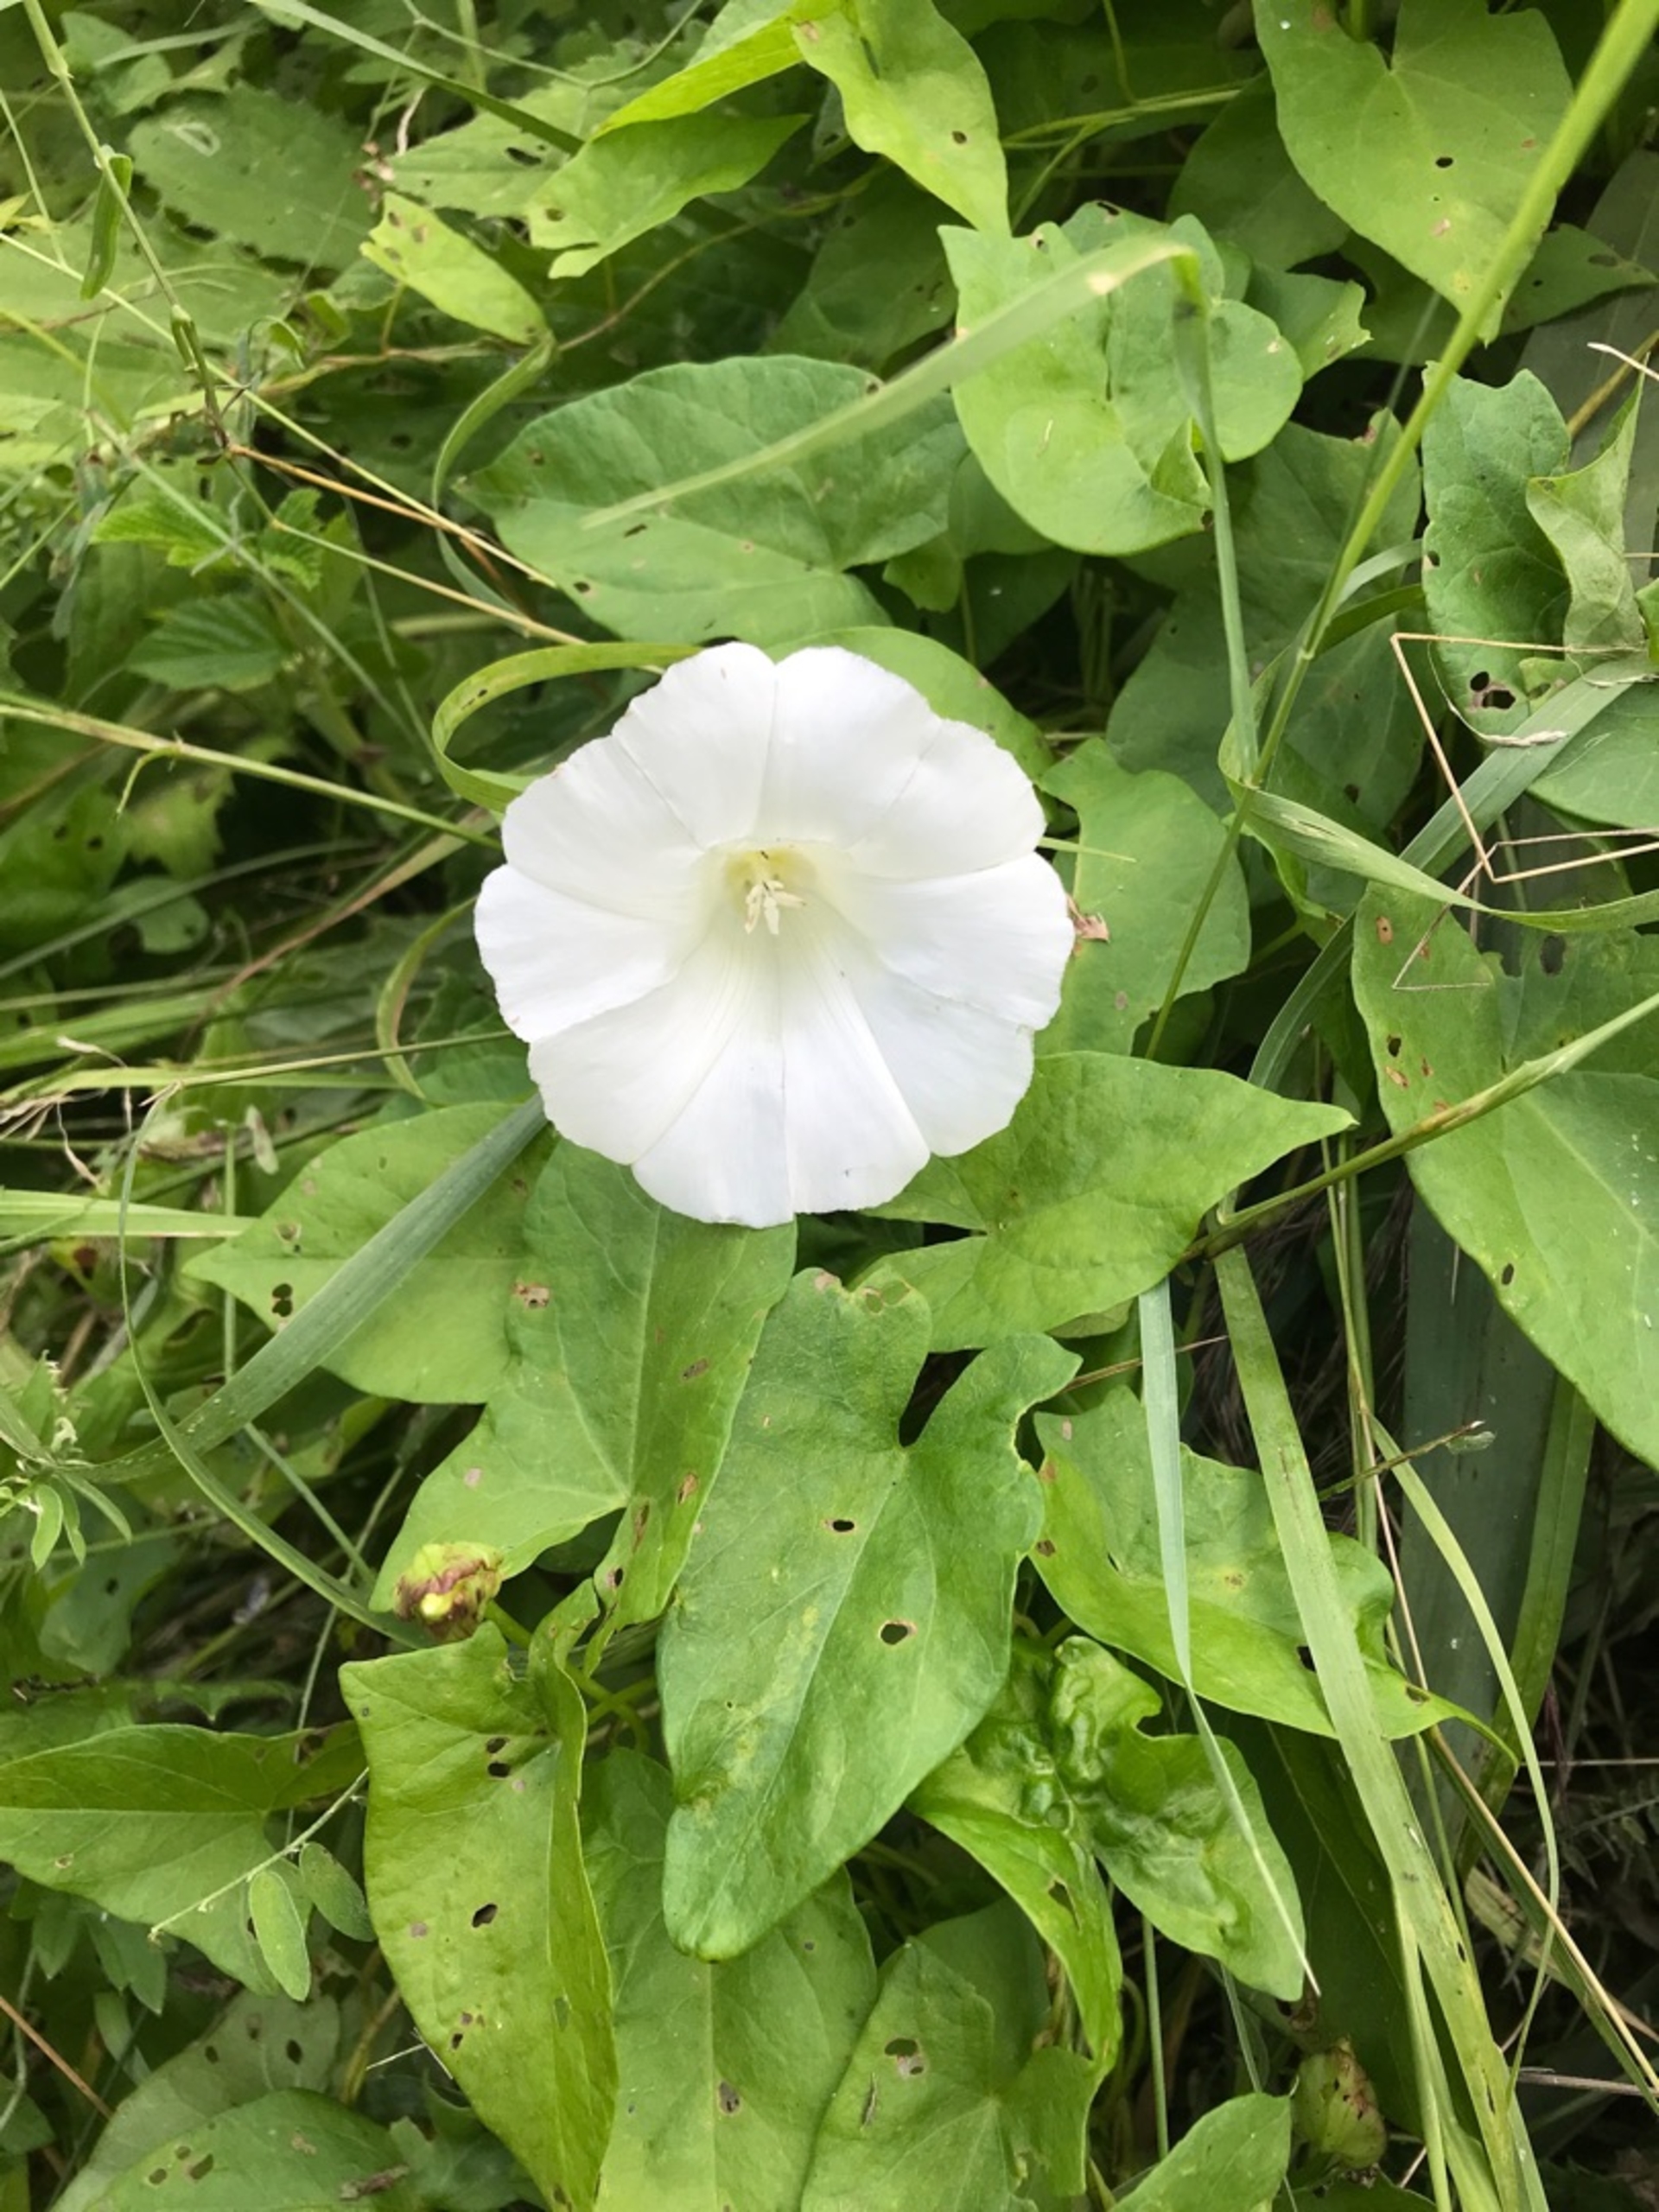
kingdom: Plantae
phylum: Tracheophyta
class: Magnoliopsida
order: Solanales
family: Convolvulaceae
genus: Calystegia
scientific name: Calystegia sepium
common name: Gærde-snerle
